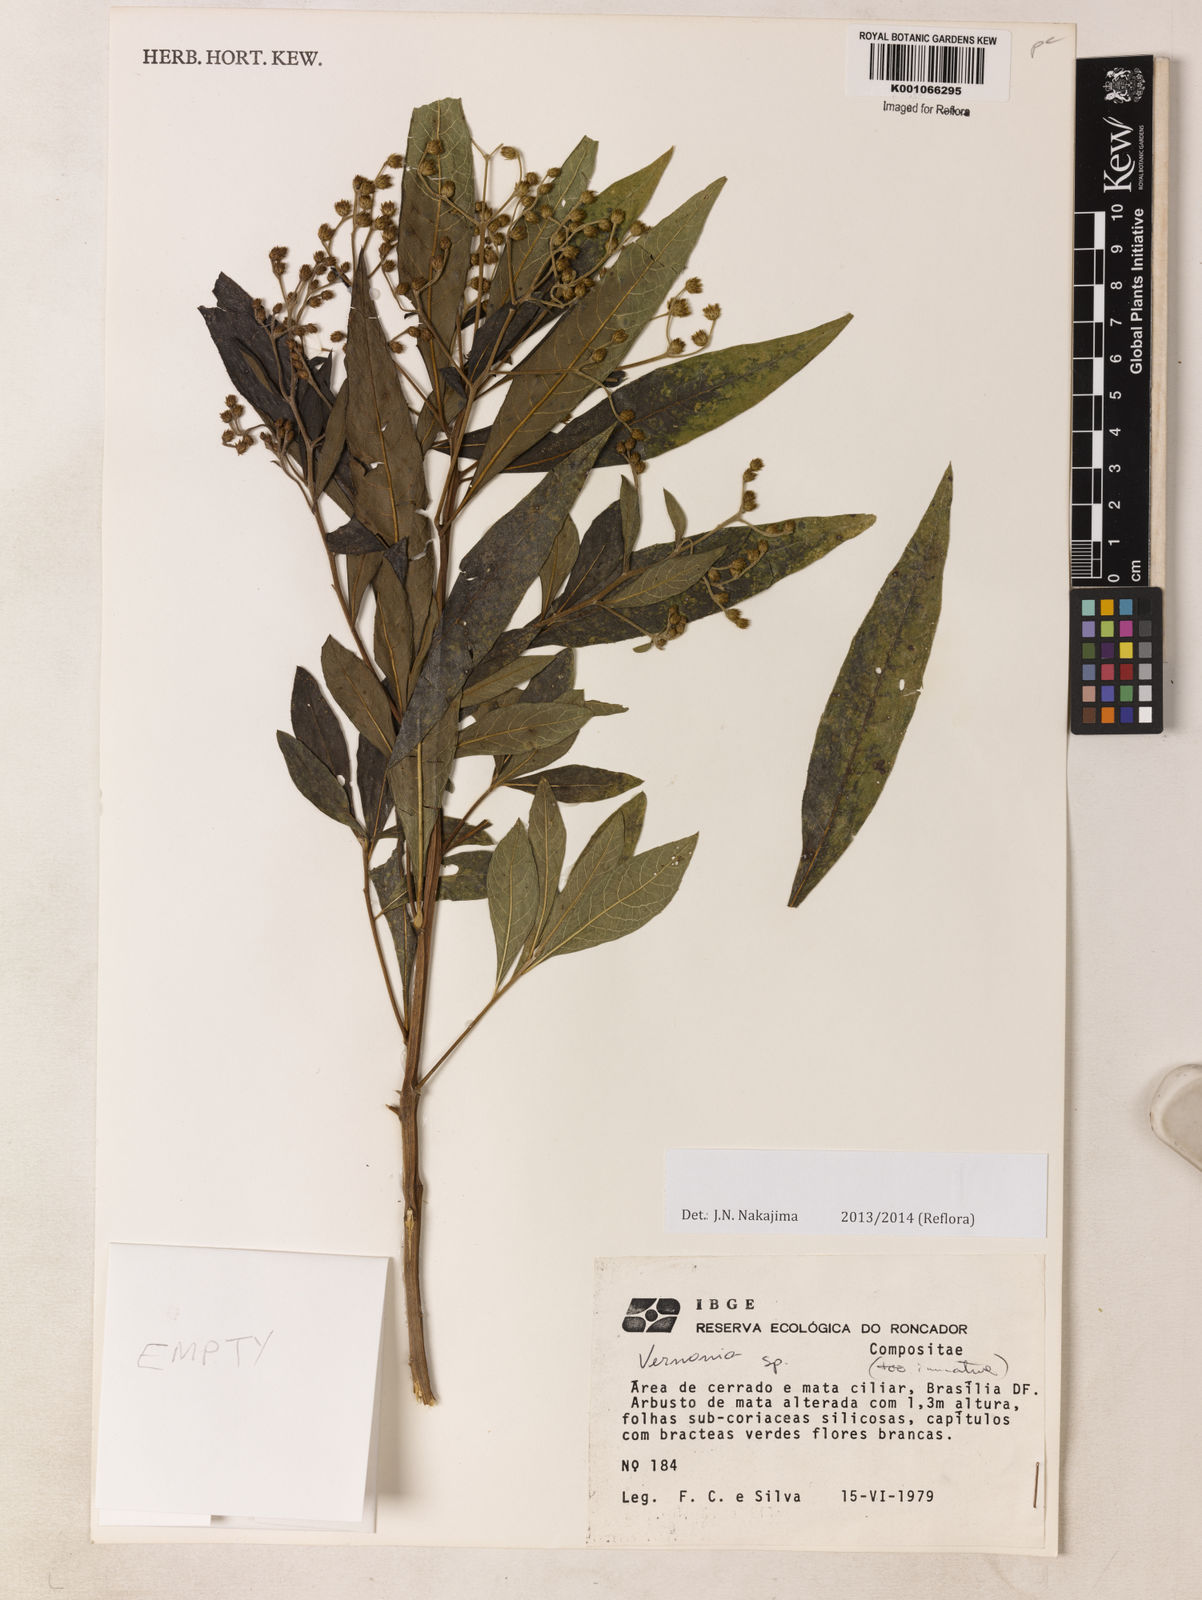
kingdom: Plantae
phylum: Tracheophyta
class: Magnoliopsida
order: Asterales
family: Asteraceae
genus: Vernonia
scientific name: Vernonia
